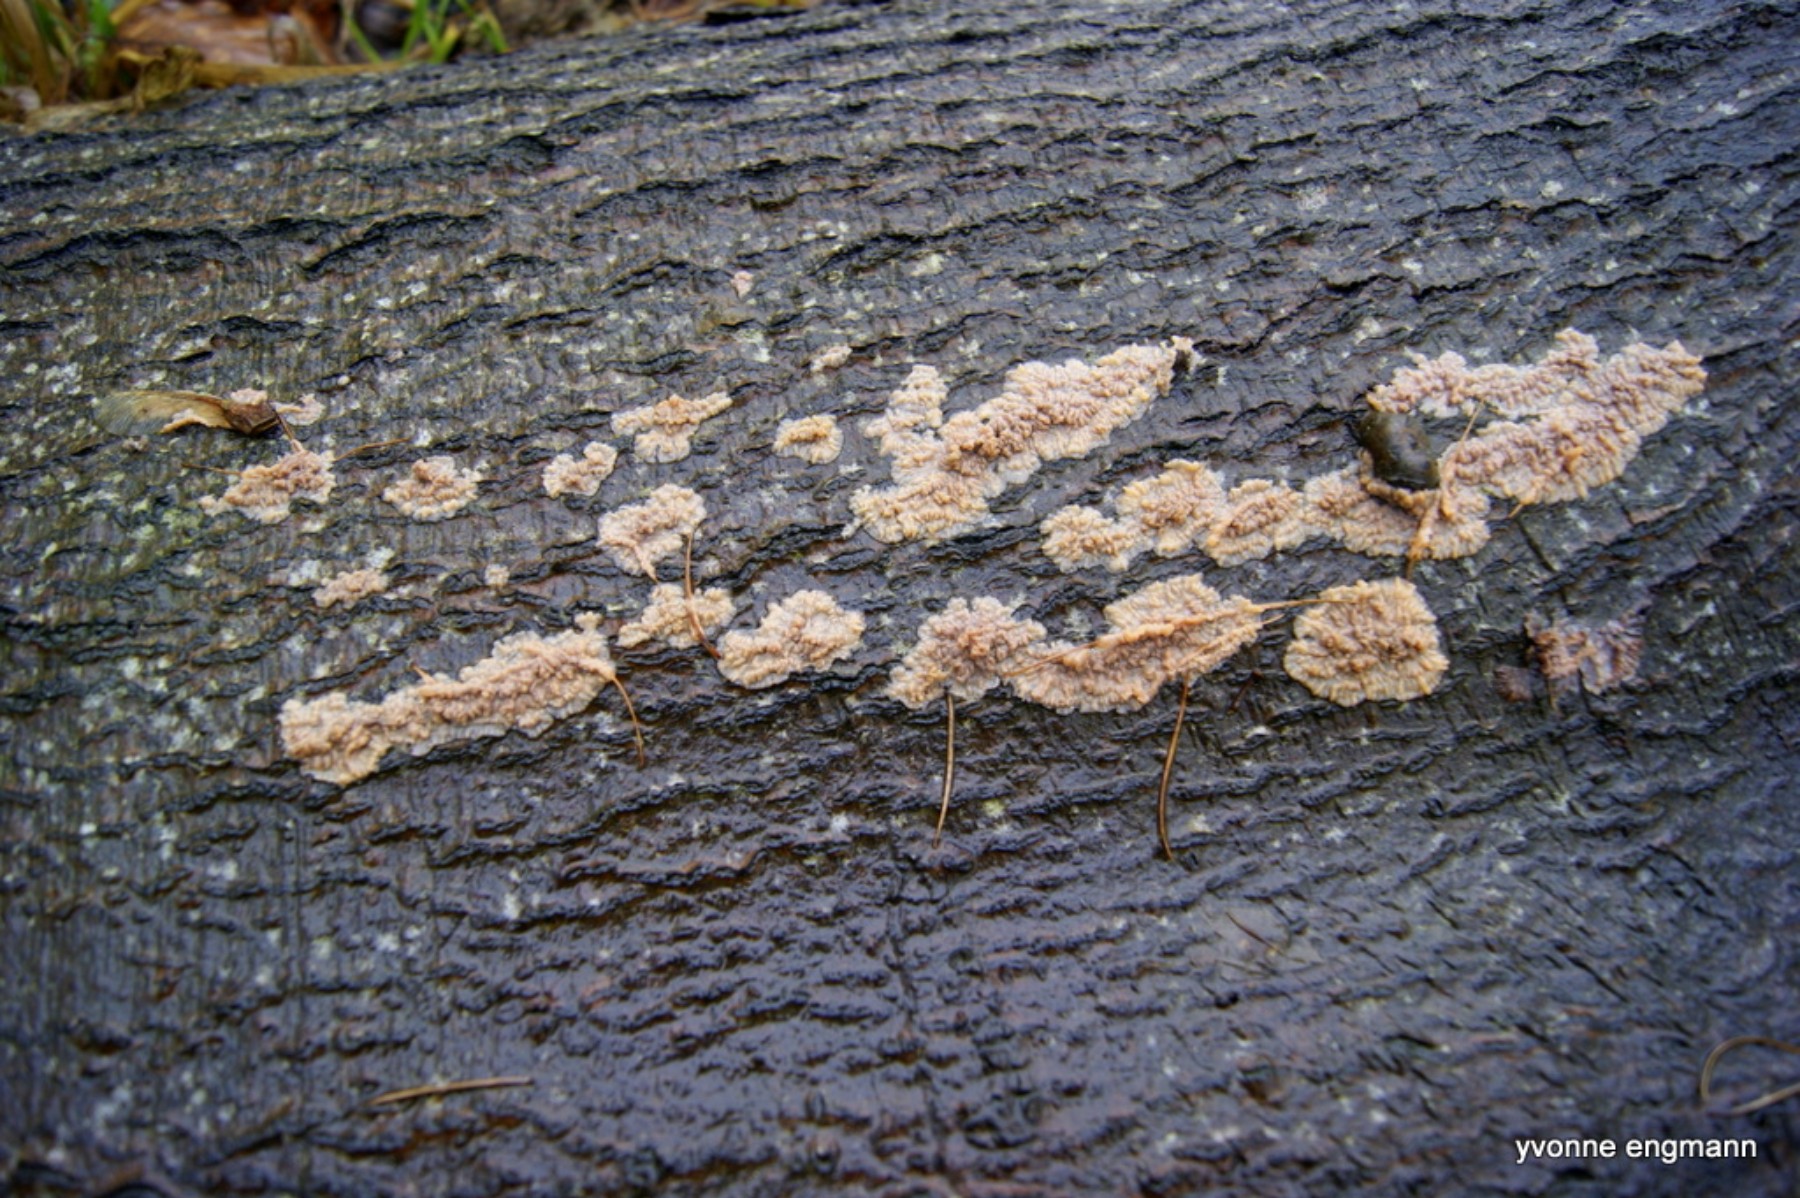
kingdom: Fungi
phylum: Basidiomycota
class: Agaricomycetes
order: Polyporales
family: Meruliaceae
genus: Phlebia
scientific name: Phlebia radiata
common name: stråle-åresvamp
